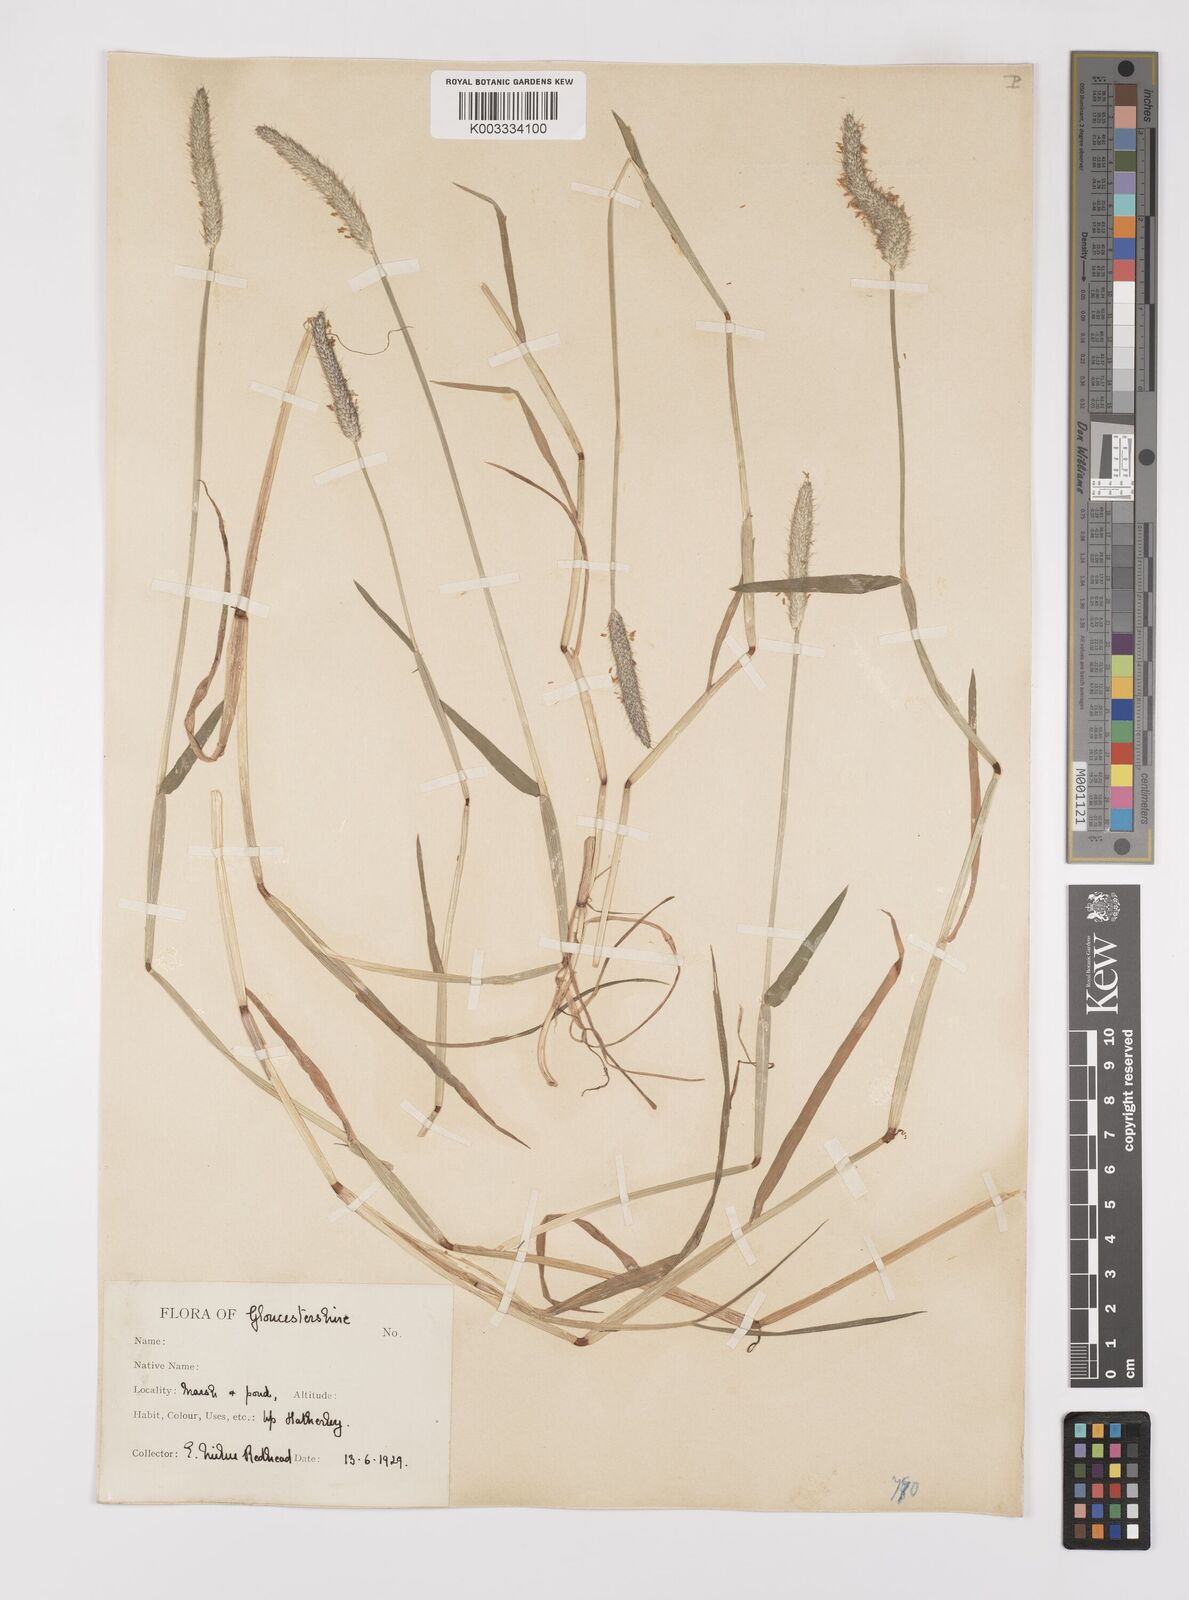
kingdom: Plantae
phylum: Tracheophyta
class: Liliopsida
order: Poales
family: Poaceae
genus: Alopecurus
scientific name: Alopecurus geniculatus
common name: Water foxtail
